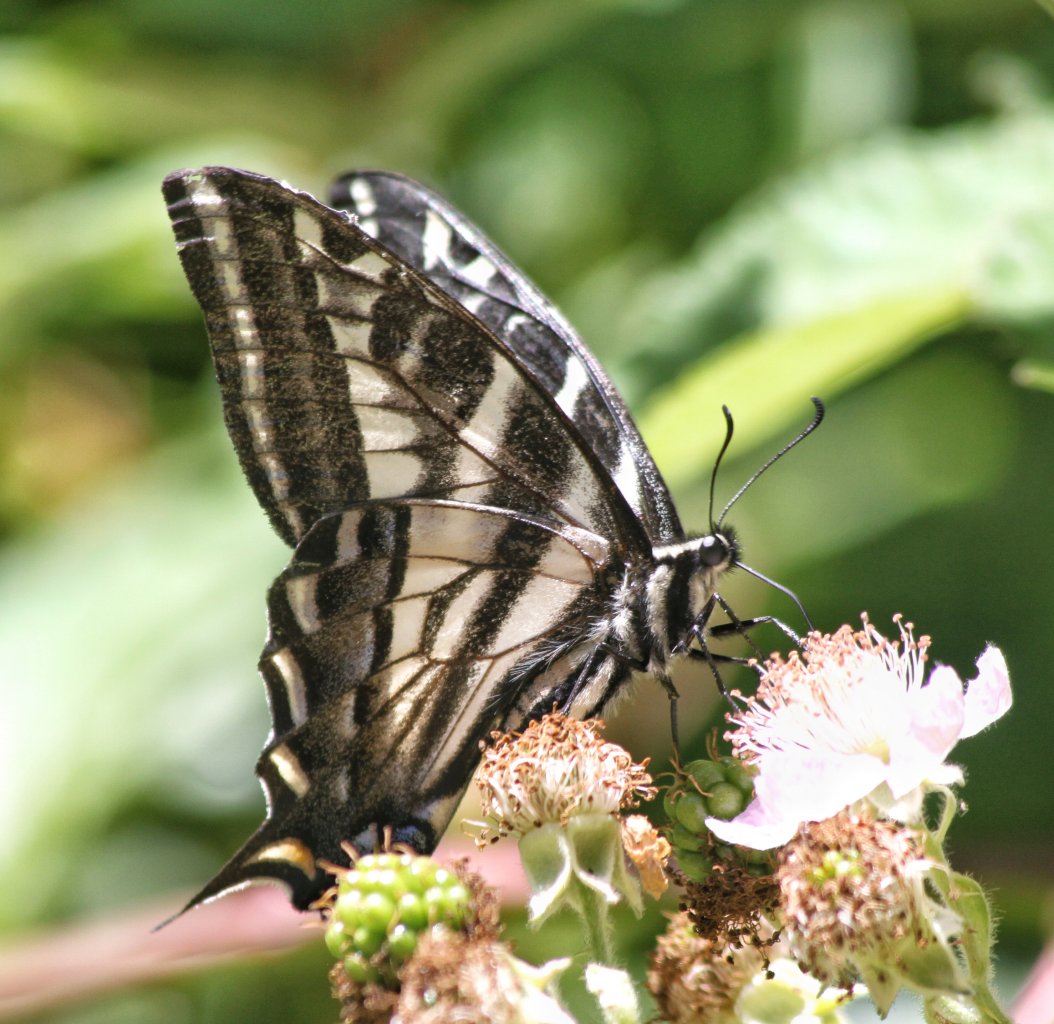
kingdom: Animalia
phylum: Arthropoda
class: Insecta
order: Lepidoptera
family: Papilionidae
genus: Pterourus
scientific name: Pterourus eurymedon
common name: Pale Swallowtail
